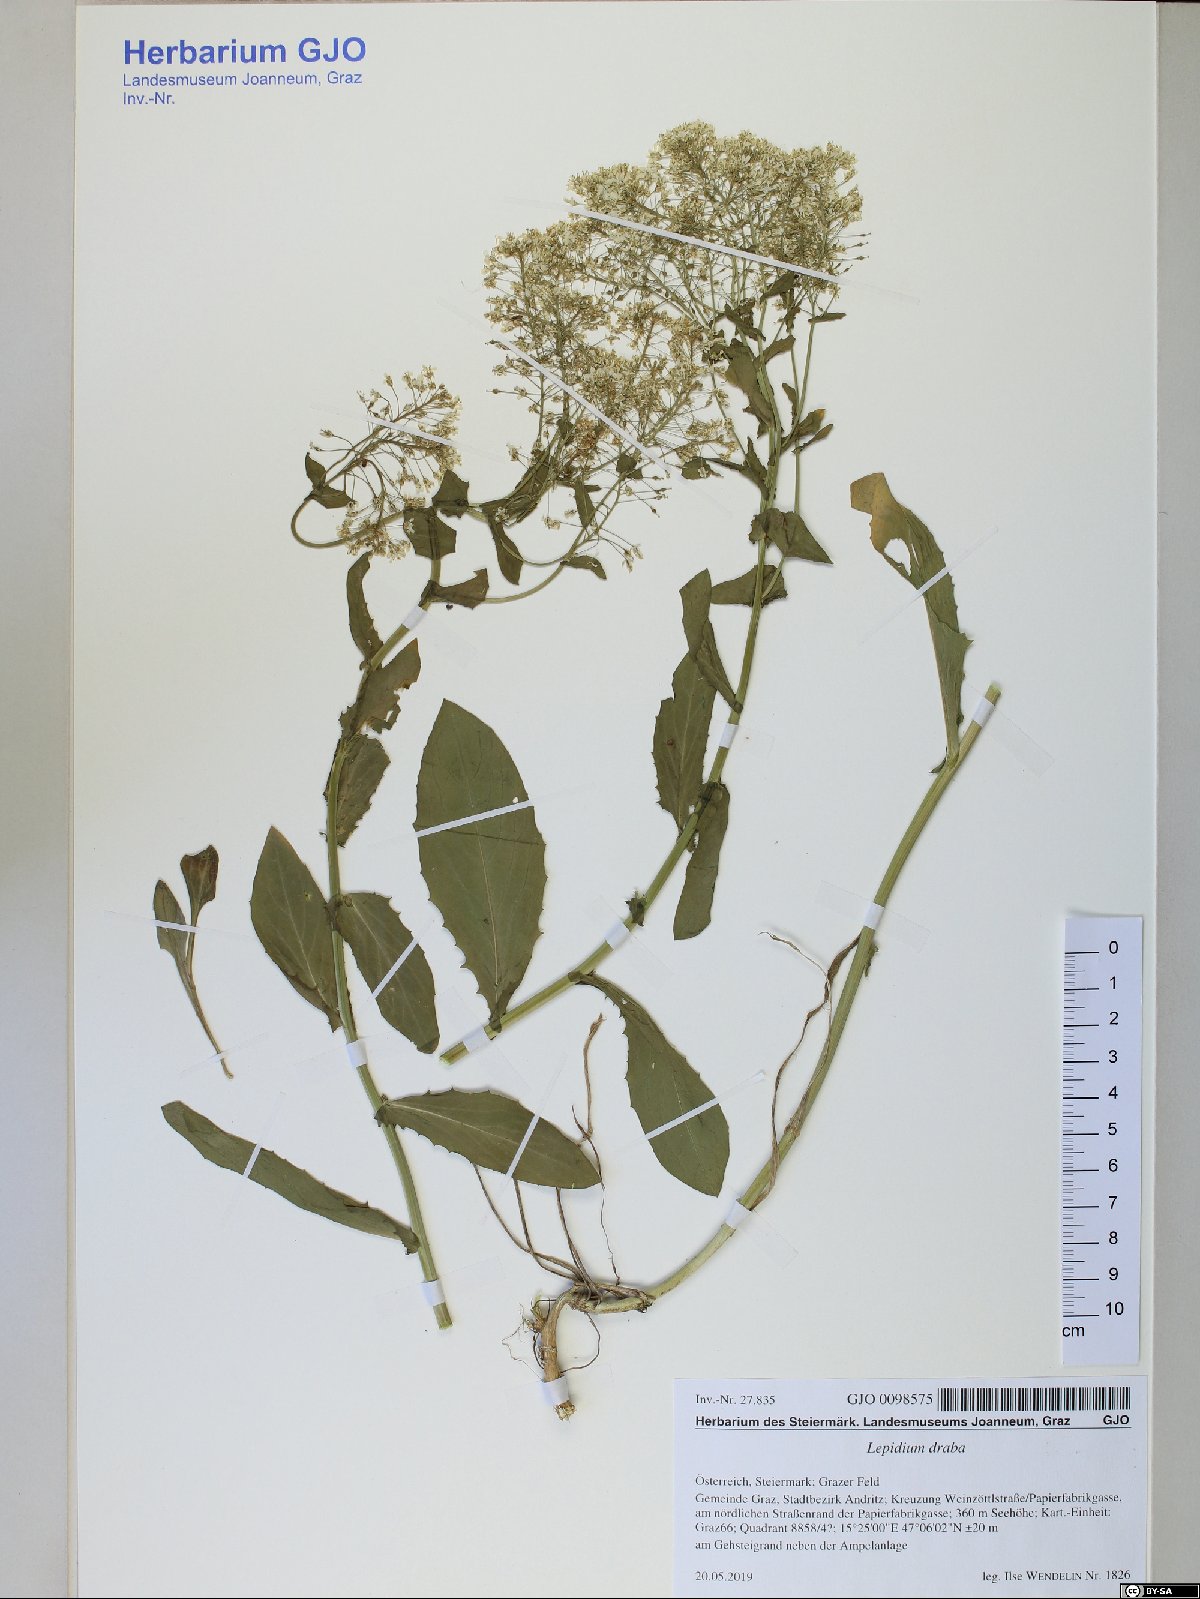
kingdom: Plantae
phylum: Tracheophyta
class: Magnoliopsida
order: Brassicales
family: Brassicaceae
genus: Lepidium
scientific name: Lepidium draba
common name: Hoary cress
